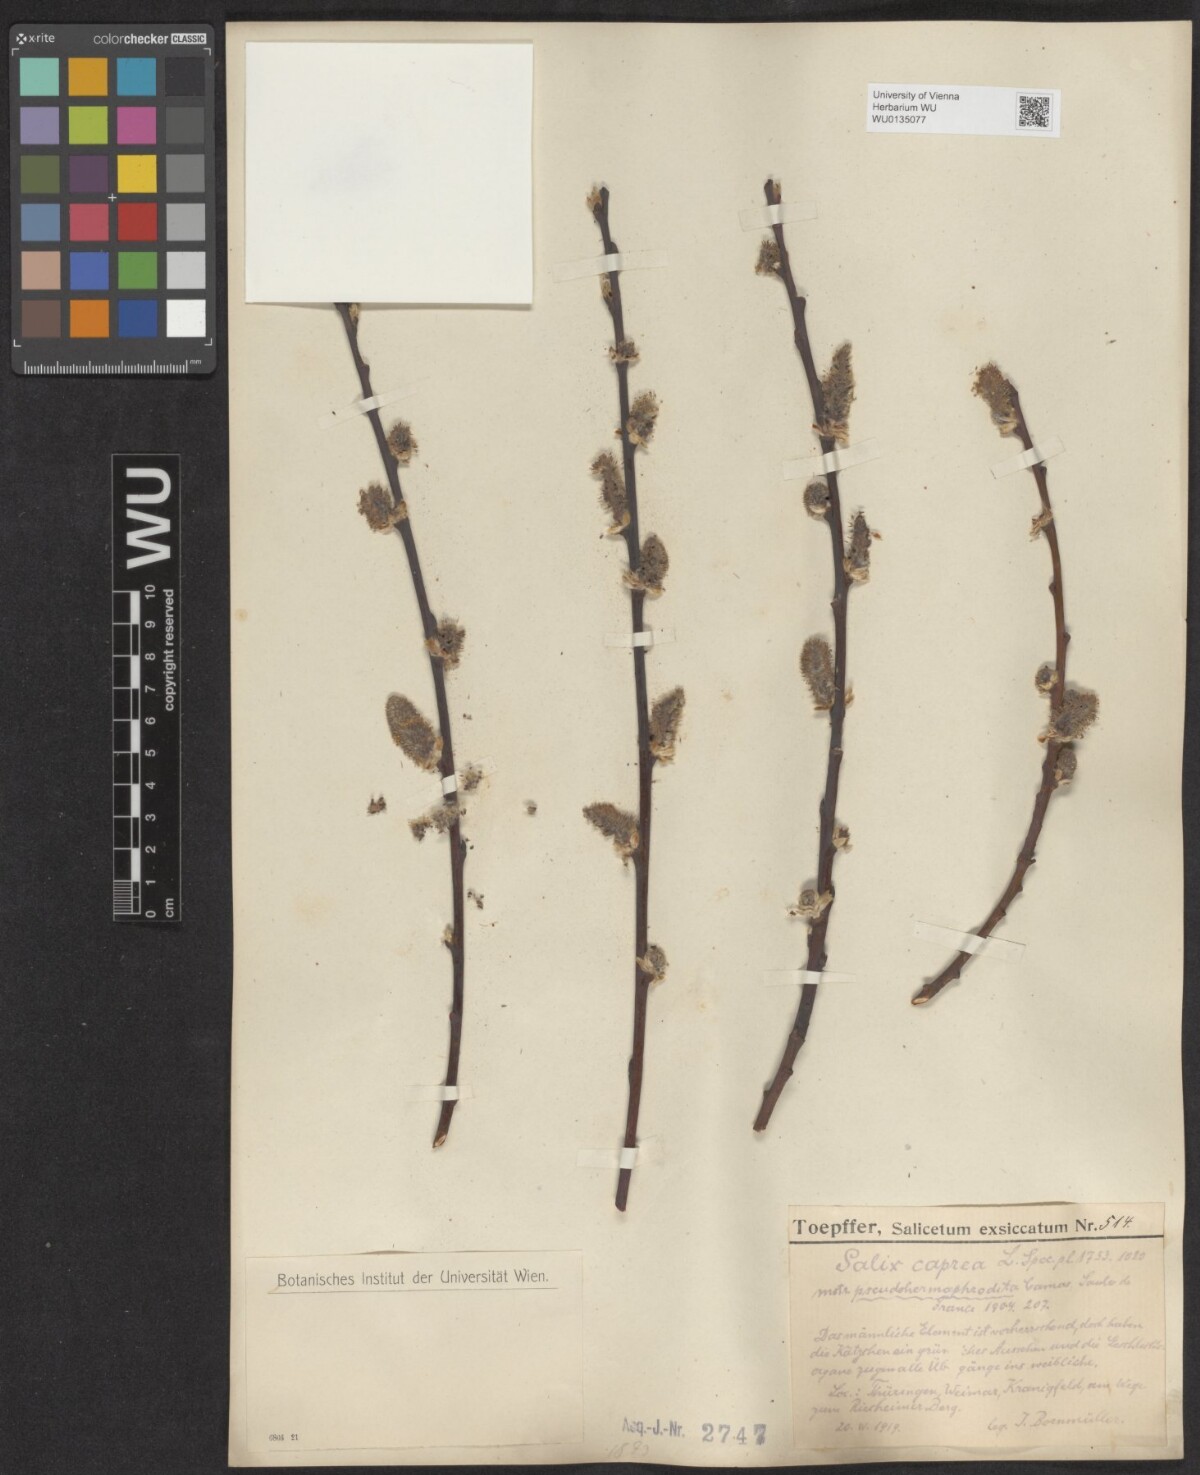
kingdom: Plantae
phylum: Tracheophyta
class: Magnoliopsida
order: Malpighiales
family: Salicaceae
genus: Salix
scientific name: Salix caprea
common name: Goat willow
